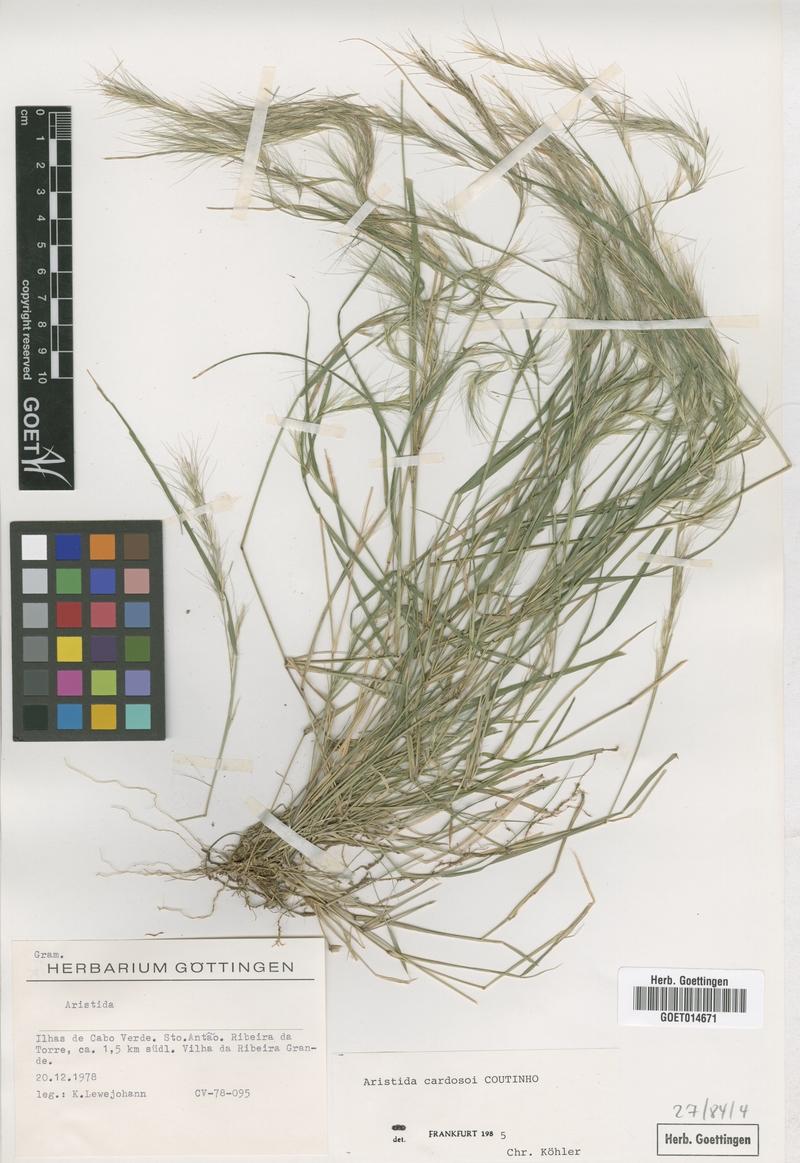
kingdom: Plantae
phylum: Tracheophyta
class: Liliopsida
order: Poales
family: Poaceae
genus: Aristida
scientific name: Aristida adscensionis
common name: Sixweeks threeawn
